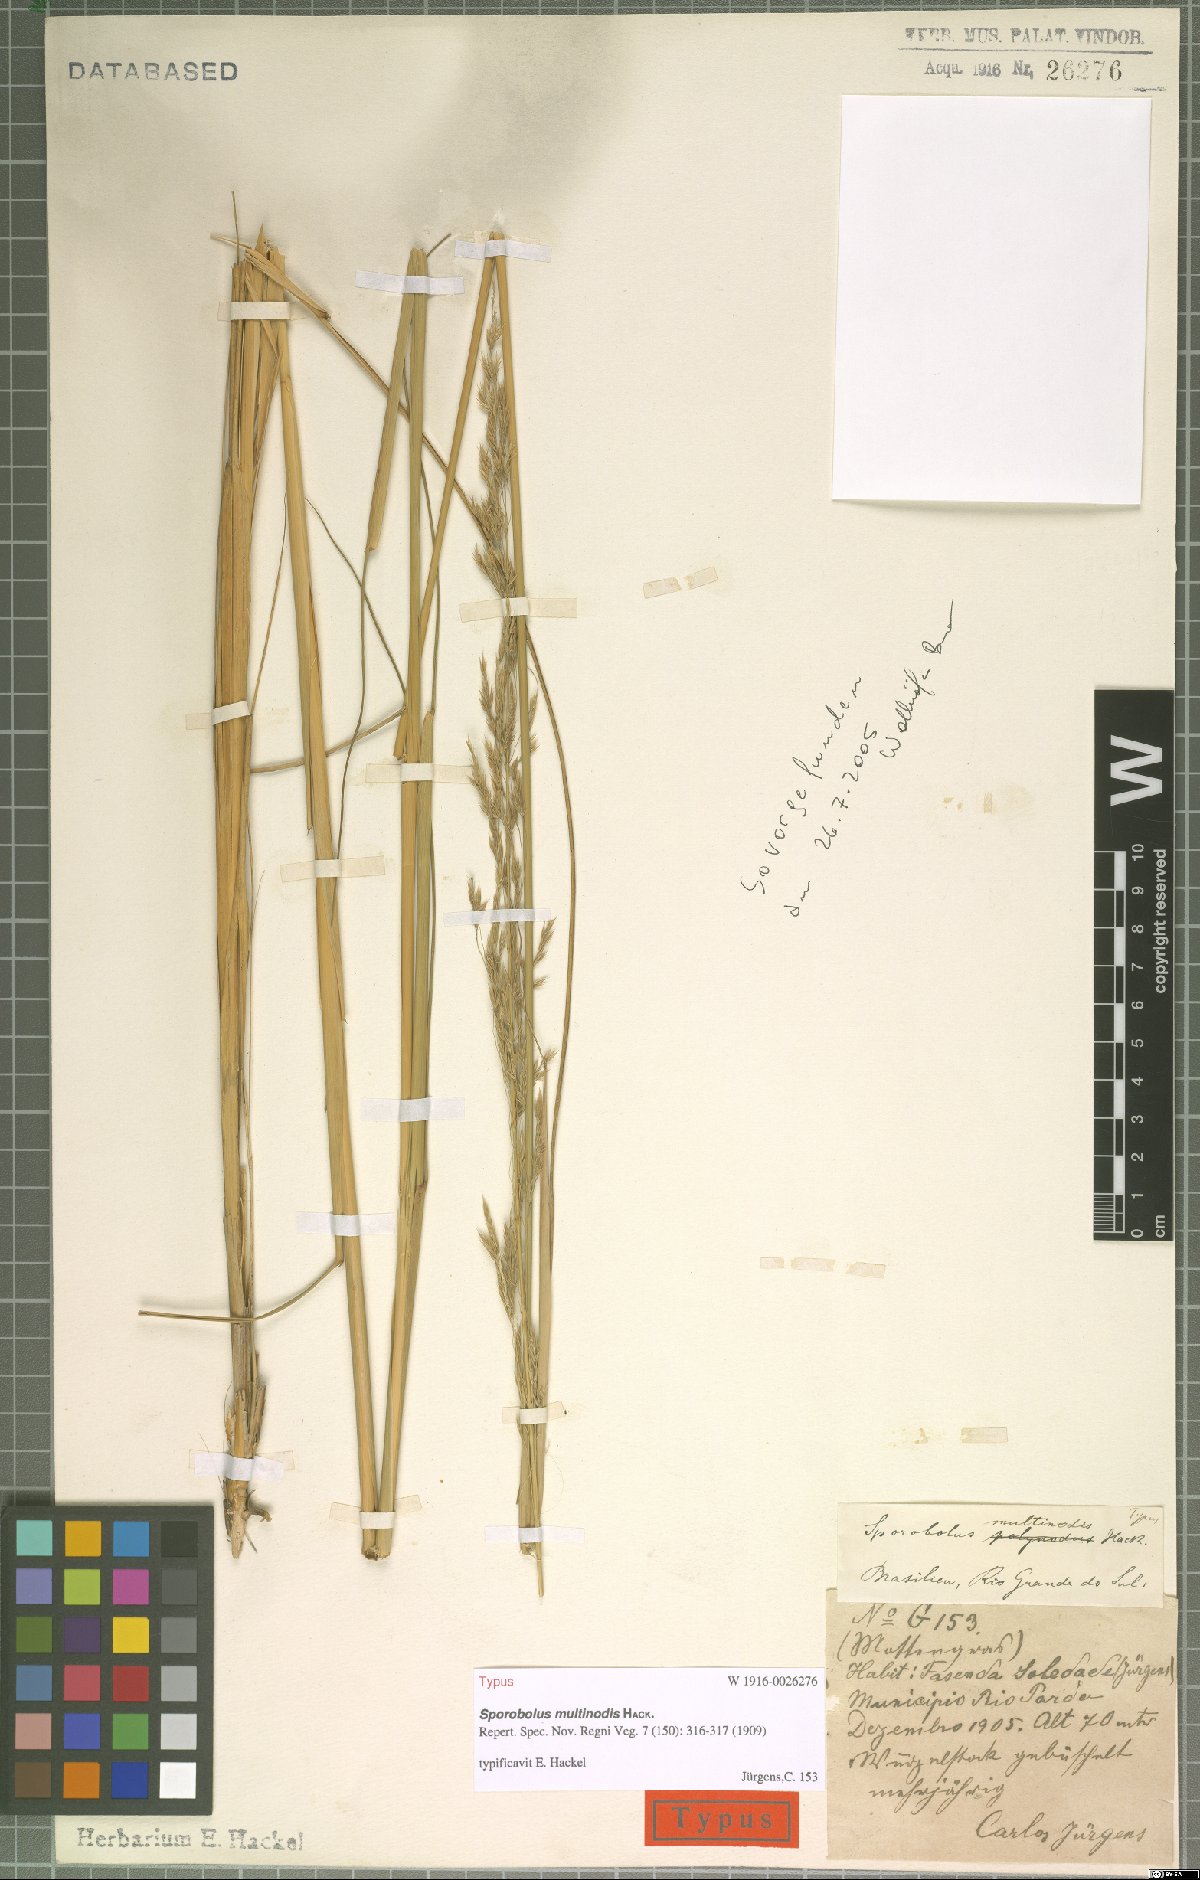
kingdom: Plantae
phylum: Tracheophyta
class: Liliopsida
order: Poales
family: Poaceae
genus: Sporobolus
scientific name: Sporobolus multinodis
